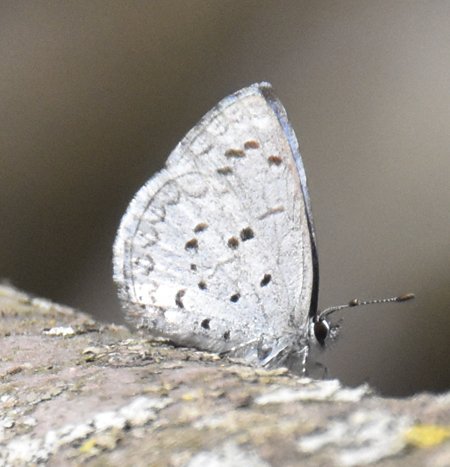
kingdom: Animalia
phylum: Arthropoda
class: Insecta
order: Lepidoptera
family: Lycaenidae
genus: Celastrina
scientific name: Celastrina
